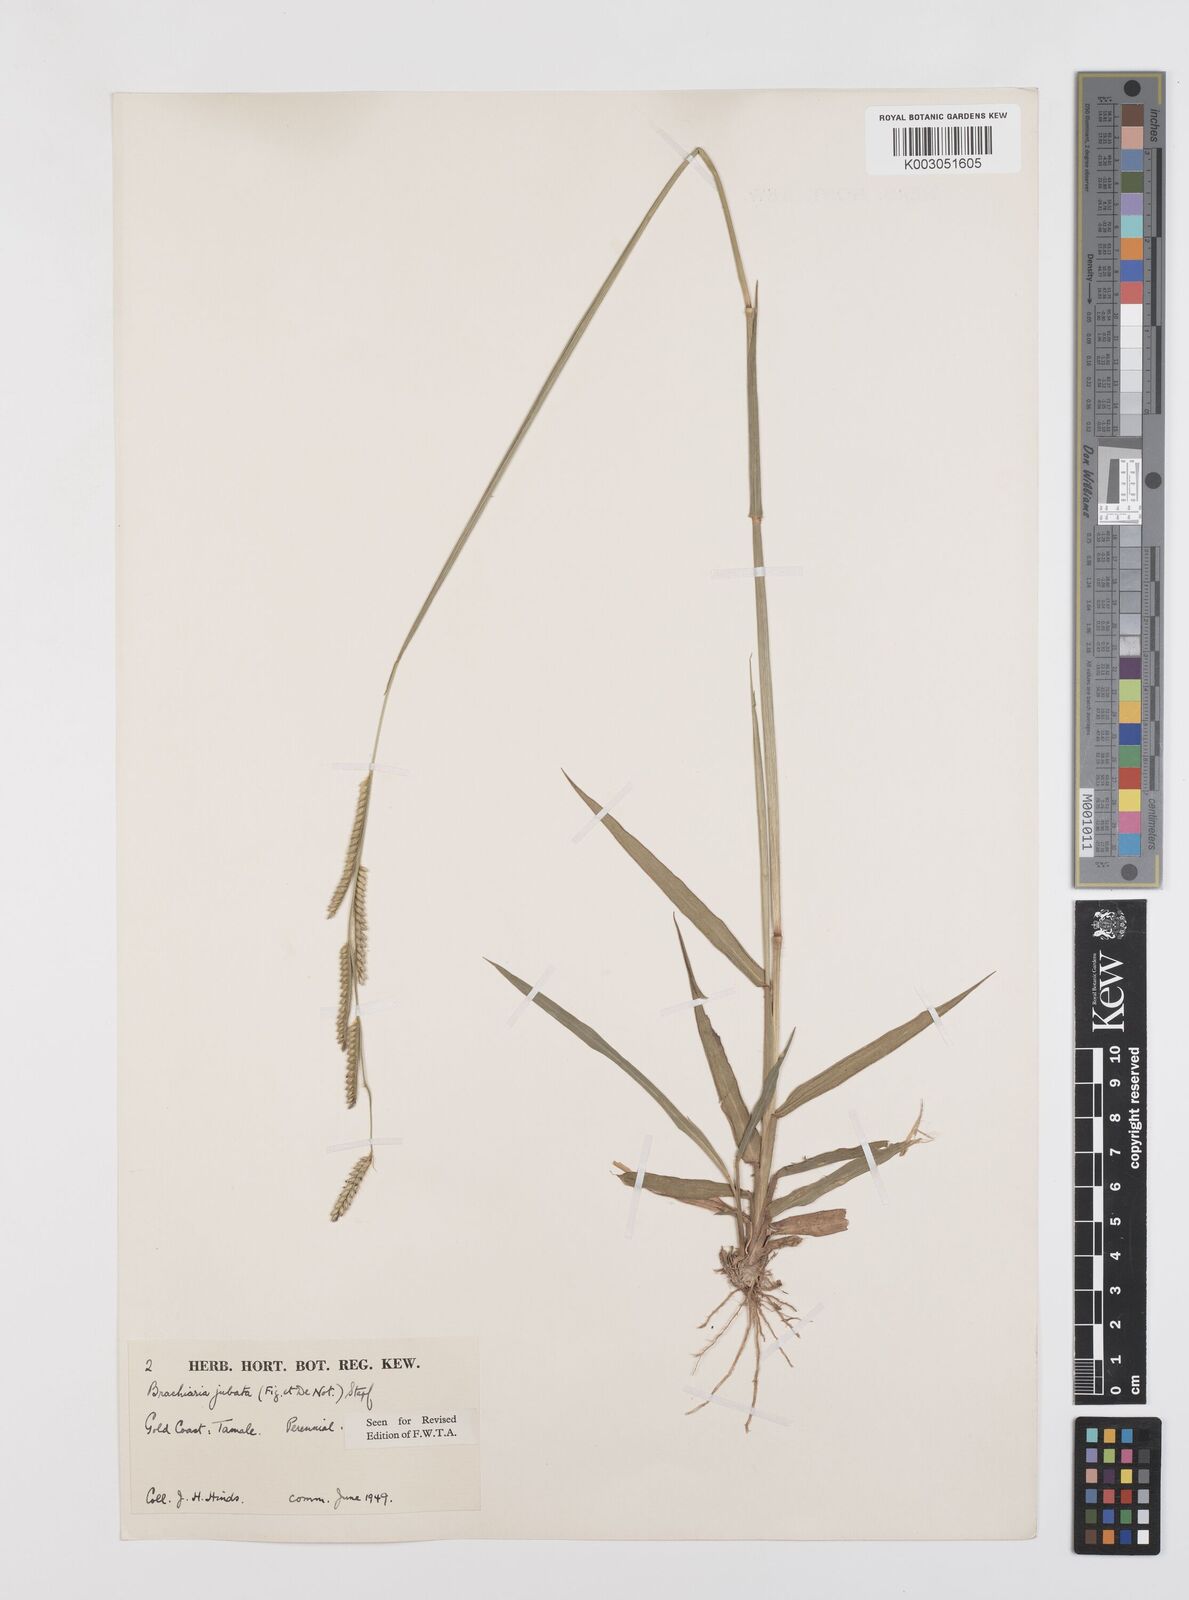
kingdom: Plantae
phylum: Tracheophyta
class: Liliopsida
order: Poales
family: Poaceae
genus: Urochloa
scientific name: Urochloa jubata
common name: Buffalograss
